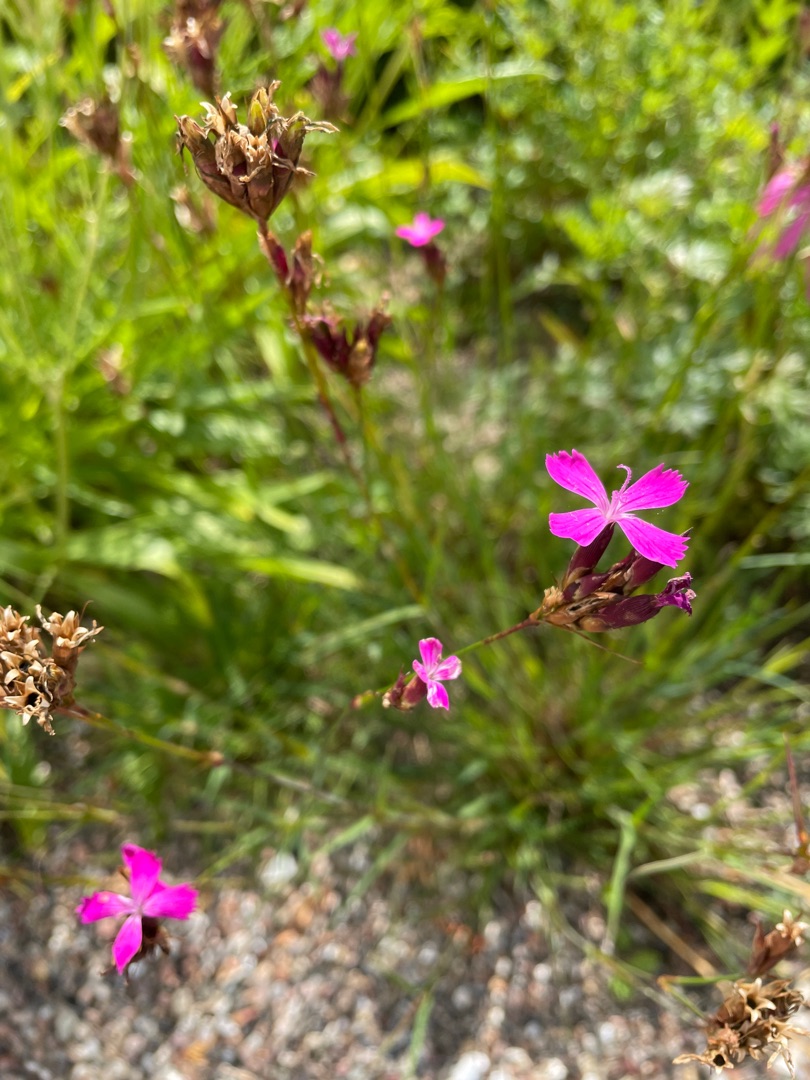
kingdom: Plantae
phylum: Tracheophyta
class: Magnoliopsida
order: Caryophyllales
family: Caryophyllaceae
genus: Dianthus
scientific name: Dianthus carthusianorum
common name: Karteuser-nellike
